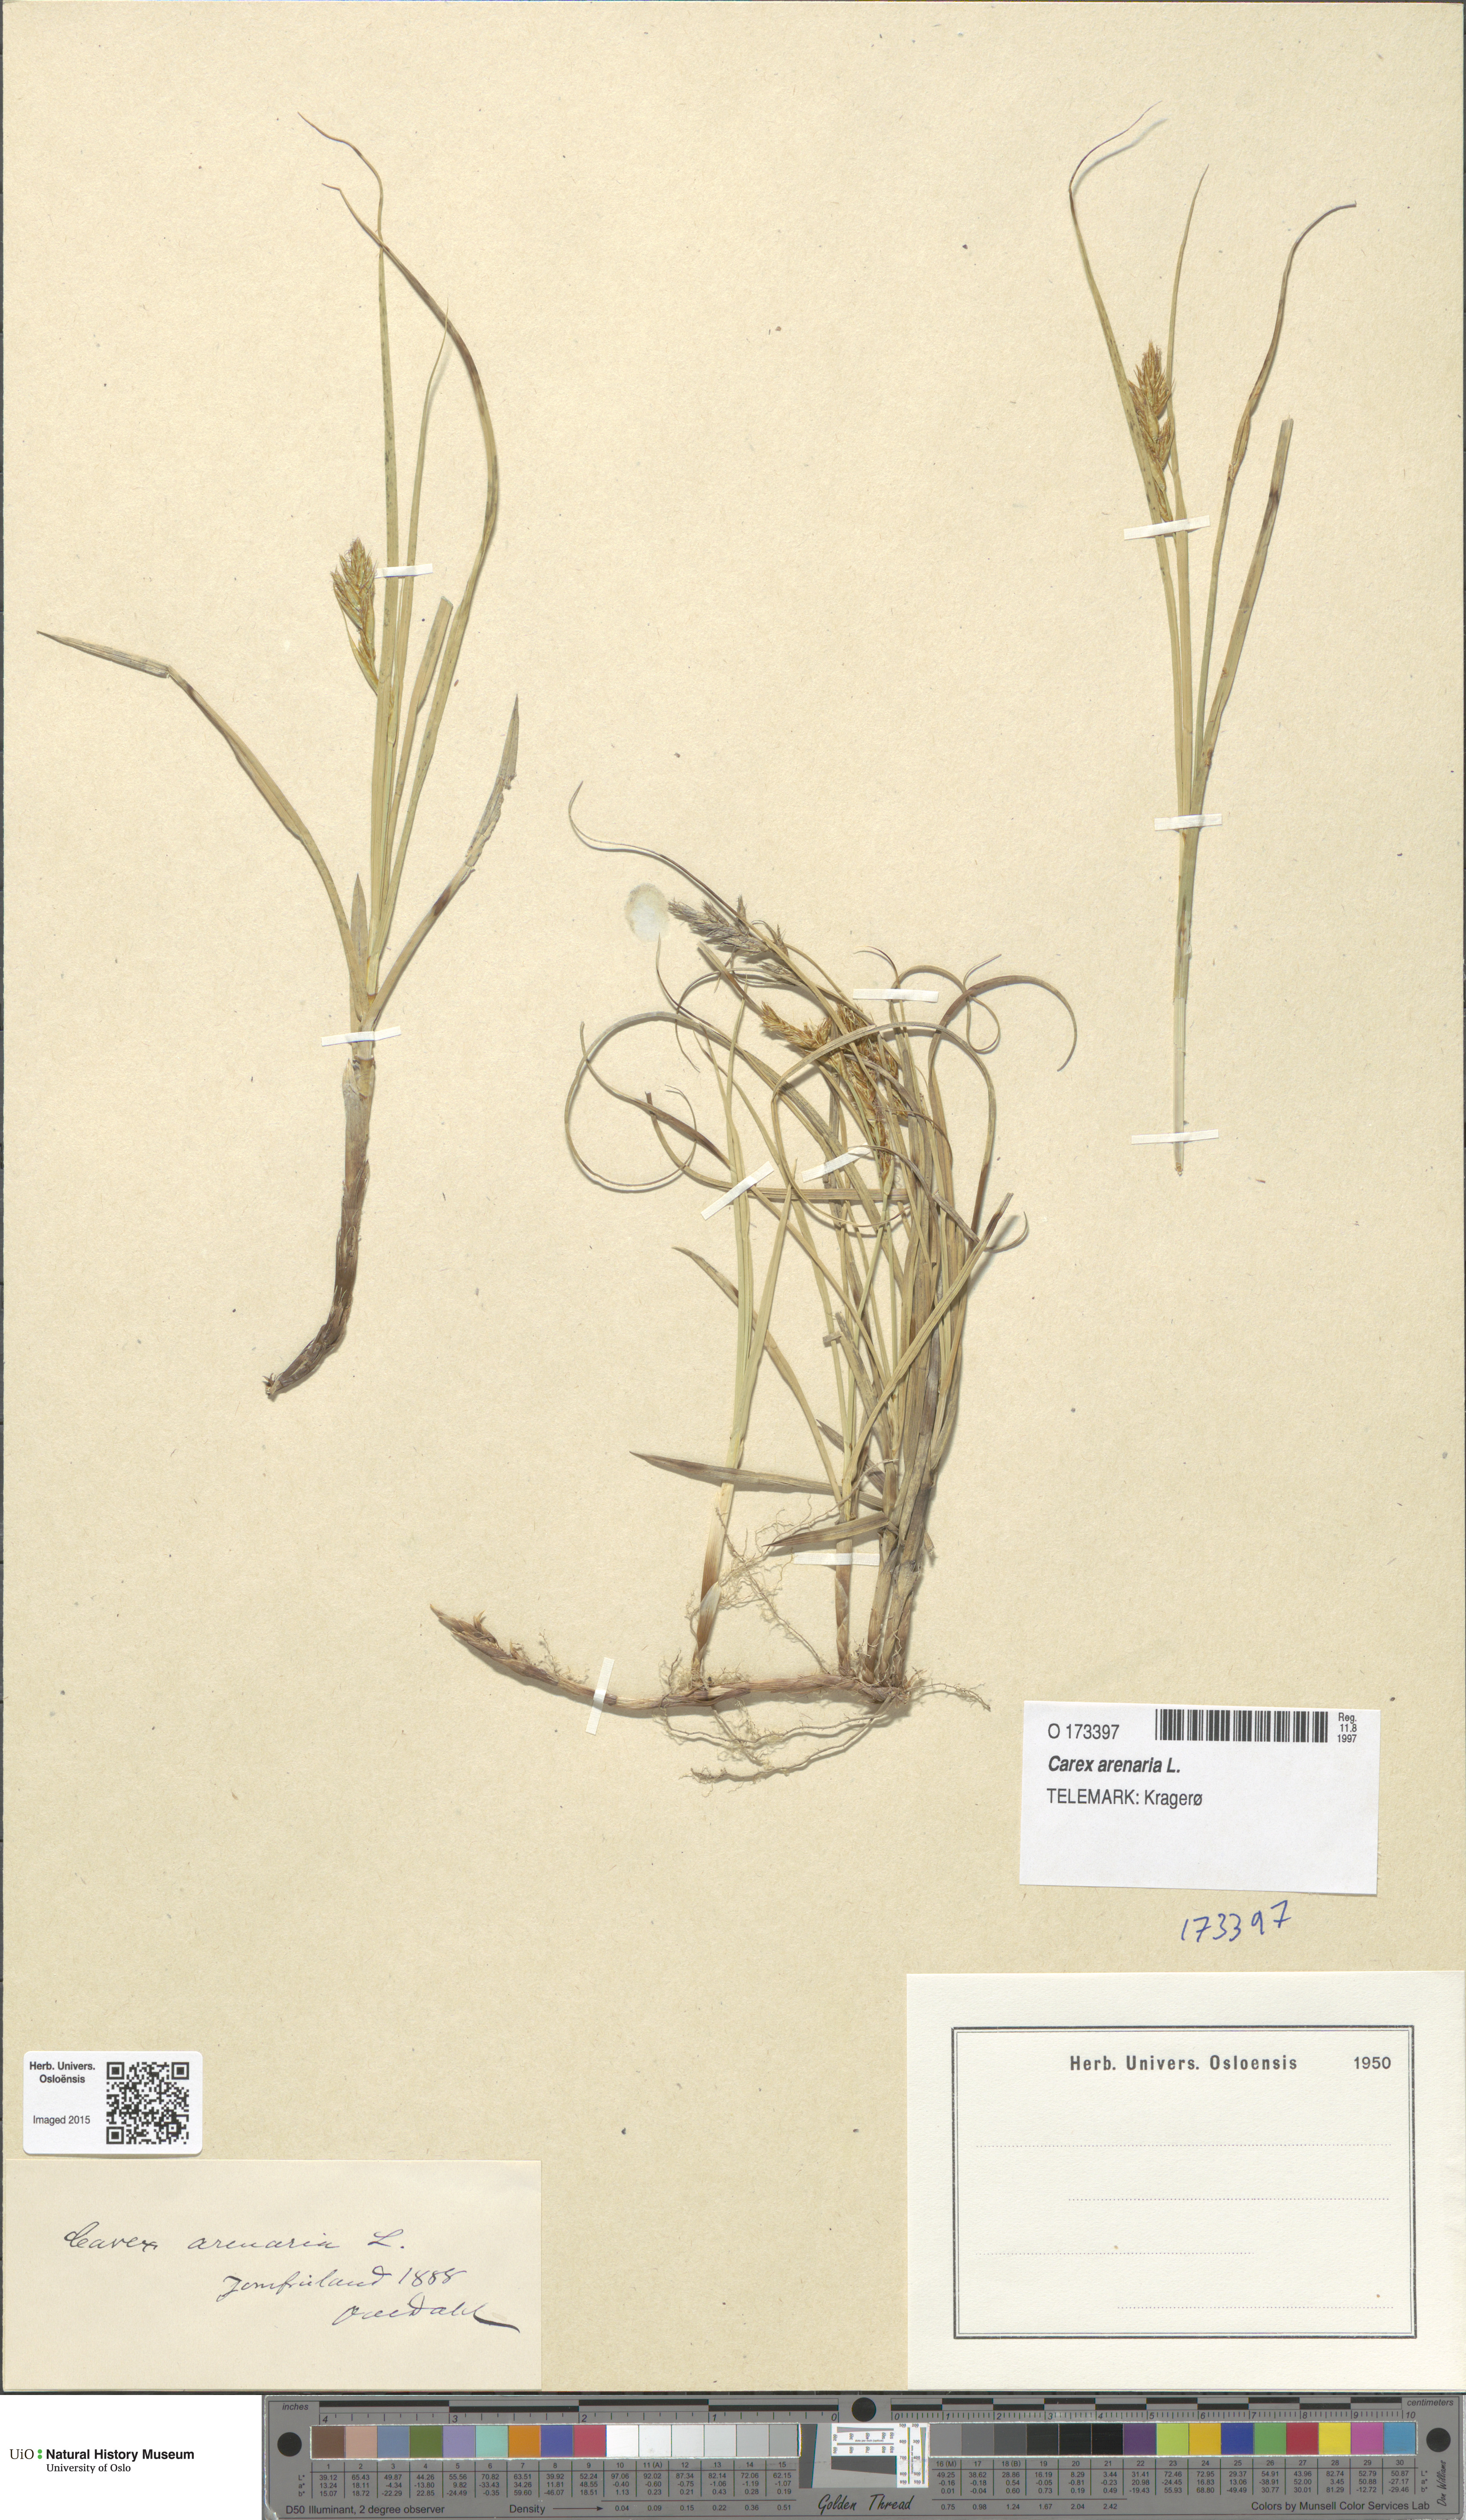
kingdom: Plantae
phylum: Tracheophyta
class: Liliopsida
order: Poales
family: Cyperaceae
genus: Carex
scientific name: Carex arenaria
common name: Sand sedge
